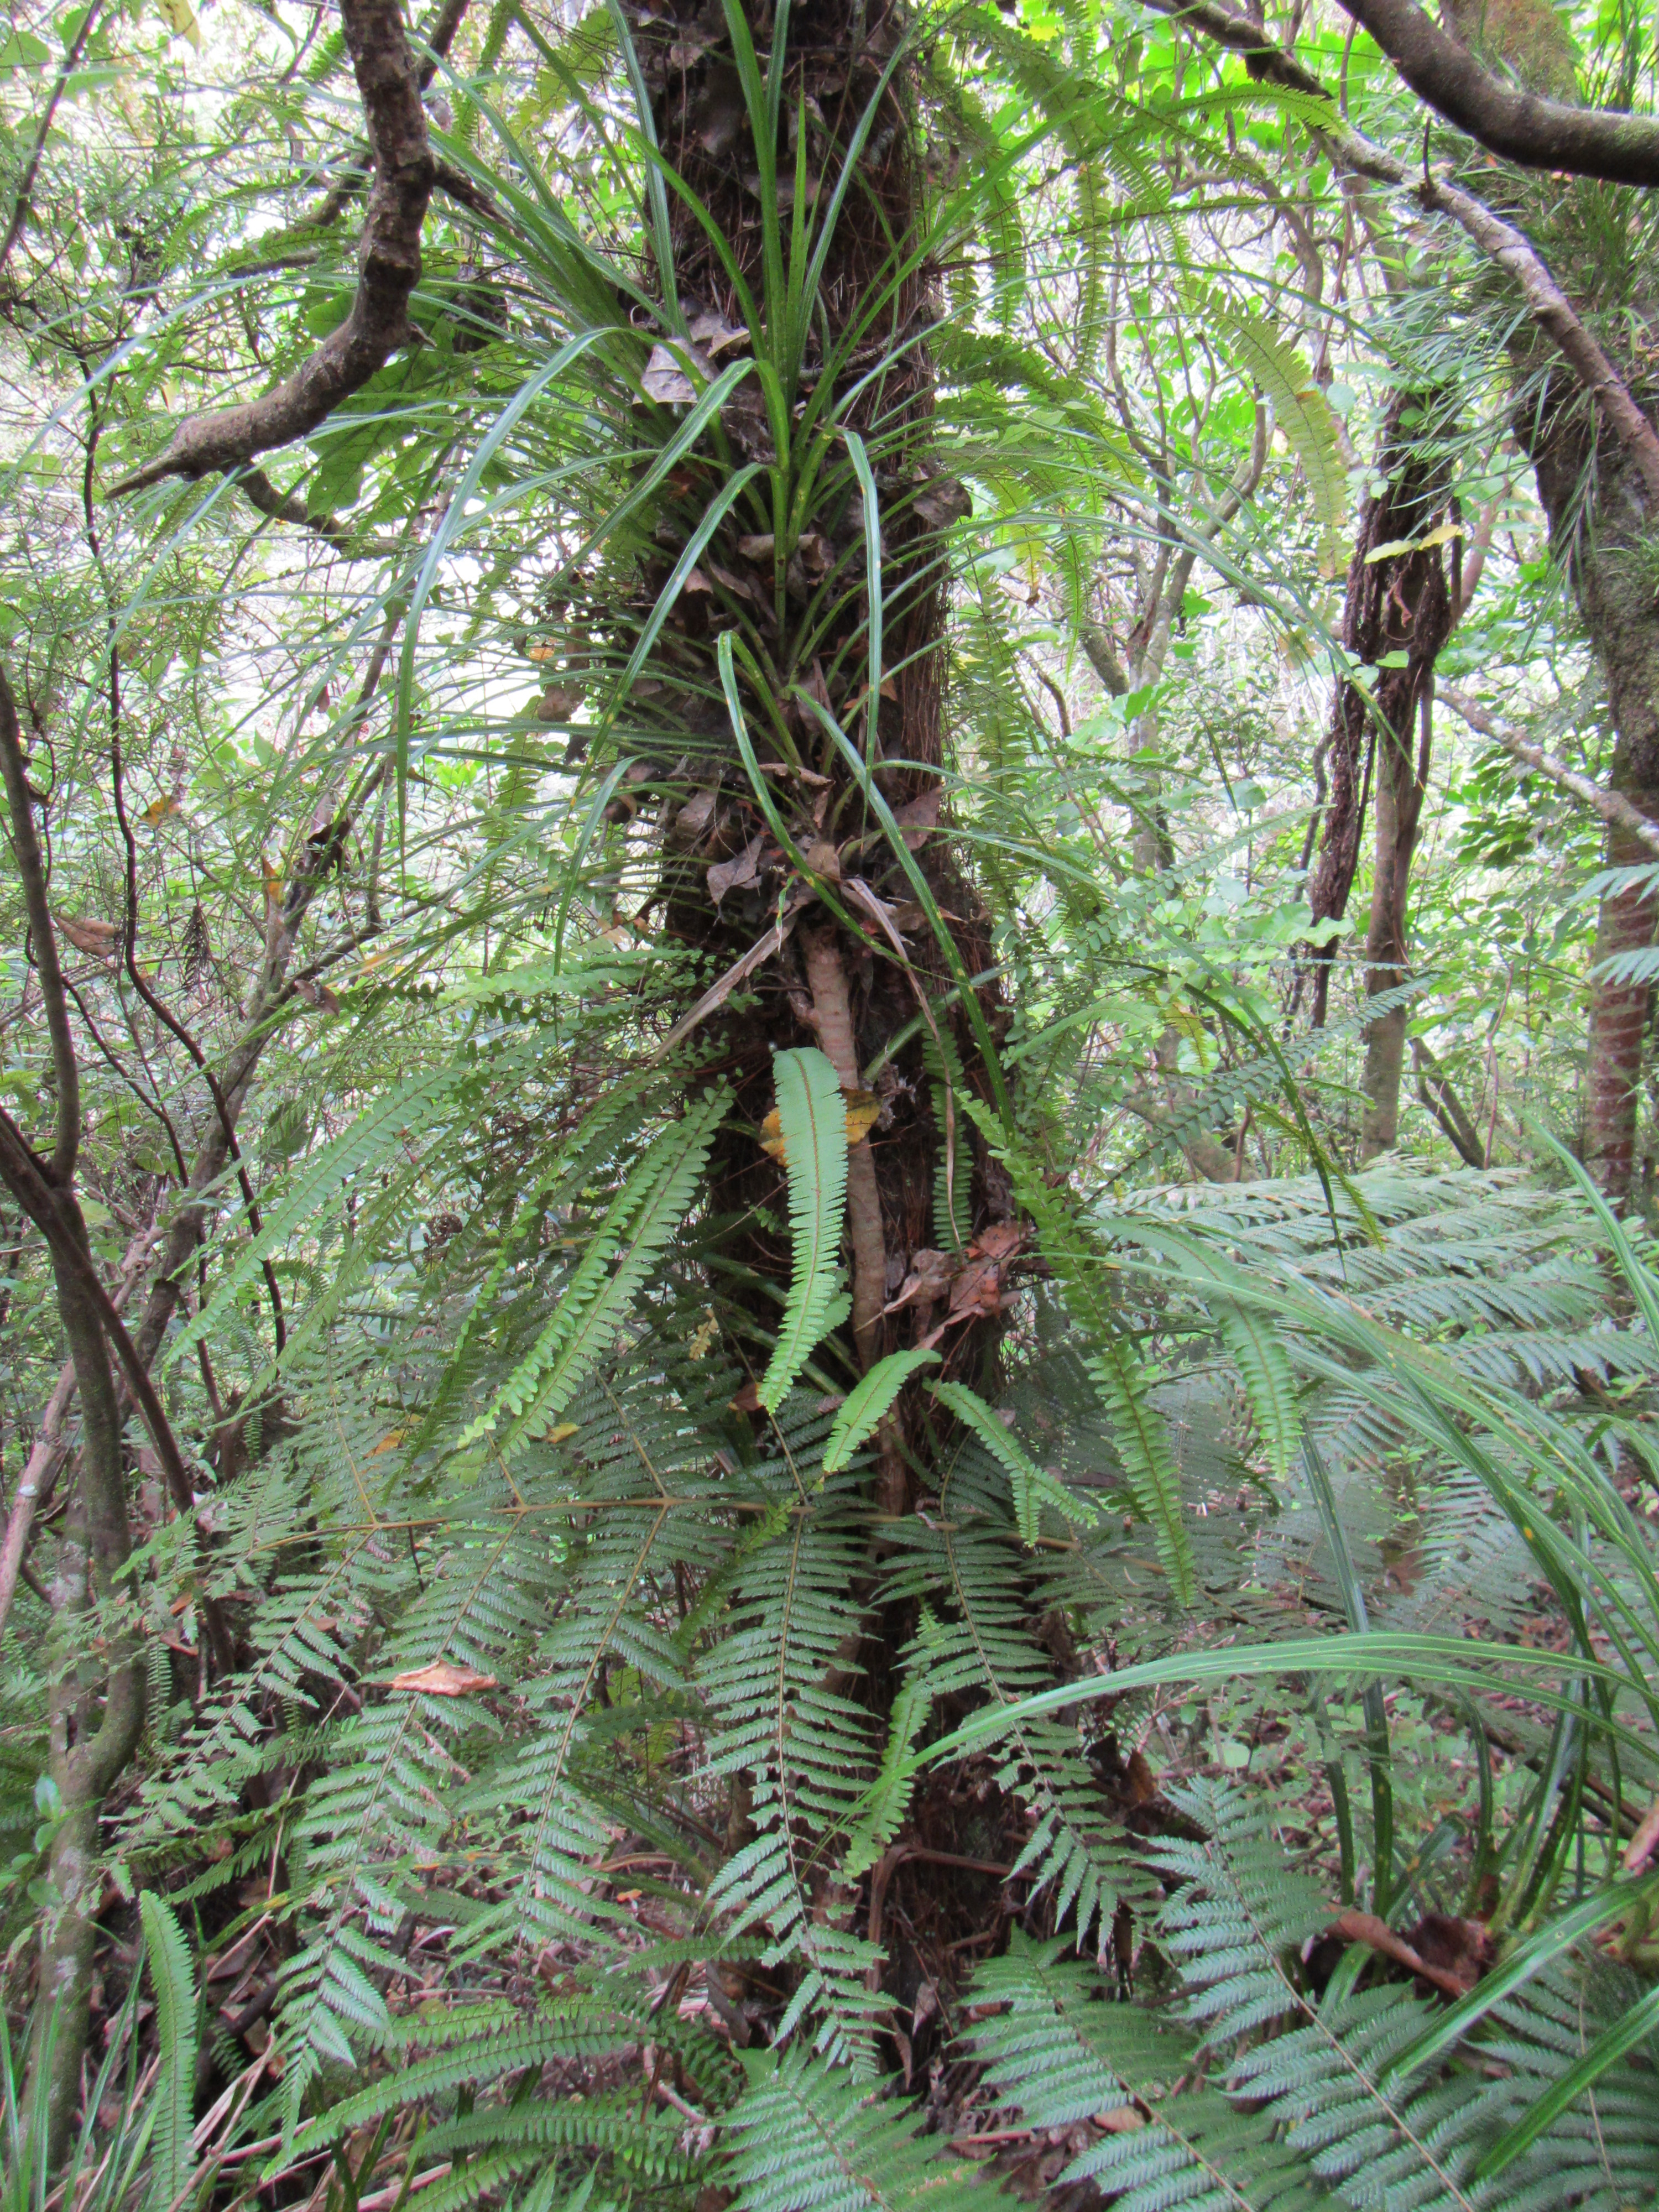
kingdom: Plantae
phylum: Tracheophyta
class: Polypodiopsida
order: Polypodiales
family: Nephrolepidaceae
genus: Nephrolepis
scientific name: Nephrolepis cordifolia
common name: Narrow swordfern
